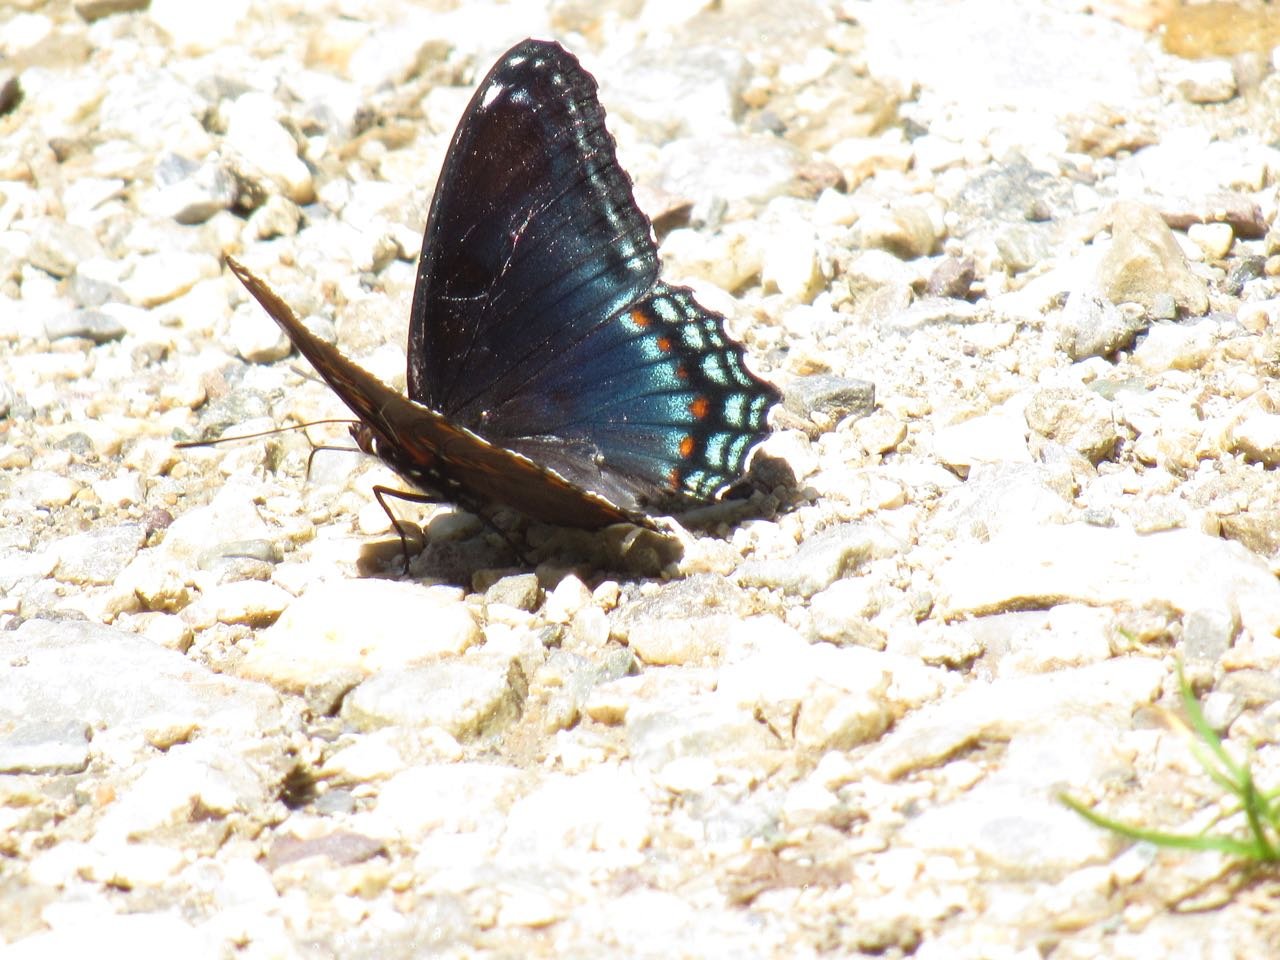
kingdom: Animalia
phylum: Arthropoda
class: Insecta
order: Lepidoptera
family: Nymphalidae
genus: Limenitis
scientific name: Limenitis
